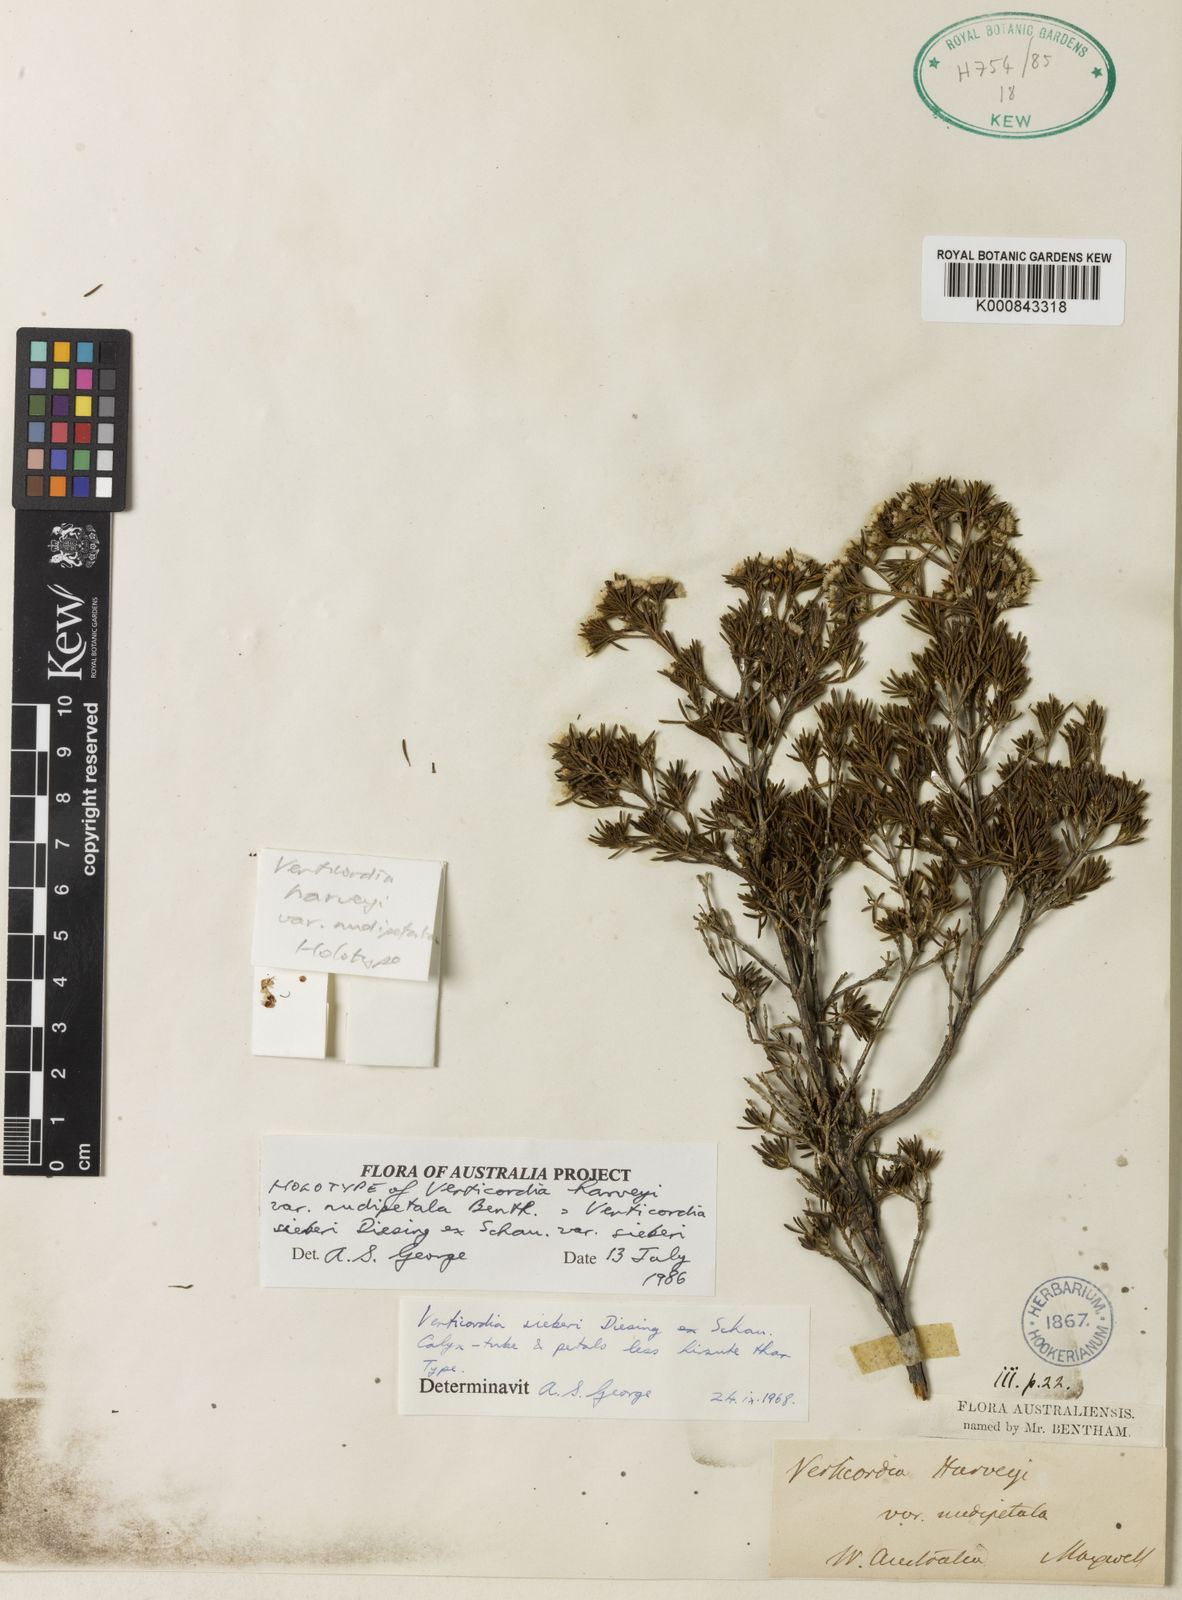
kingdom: Plantae
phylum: Tracheophyta
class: Magnoliopsida
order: Myrtales
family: Myrtaceae
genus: Verticordia
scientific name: Verticordia harveyi
